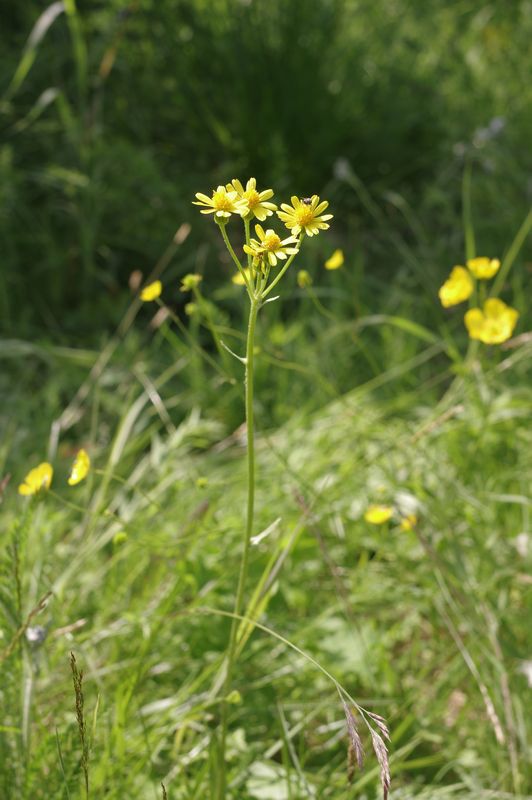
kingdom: Plantae
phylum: Tracheophyta
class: Magnoliopsida
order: Asterales
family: Asteraceae
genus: Tephroseris
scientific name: Tephroseris integrifolia
